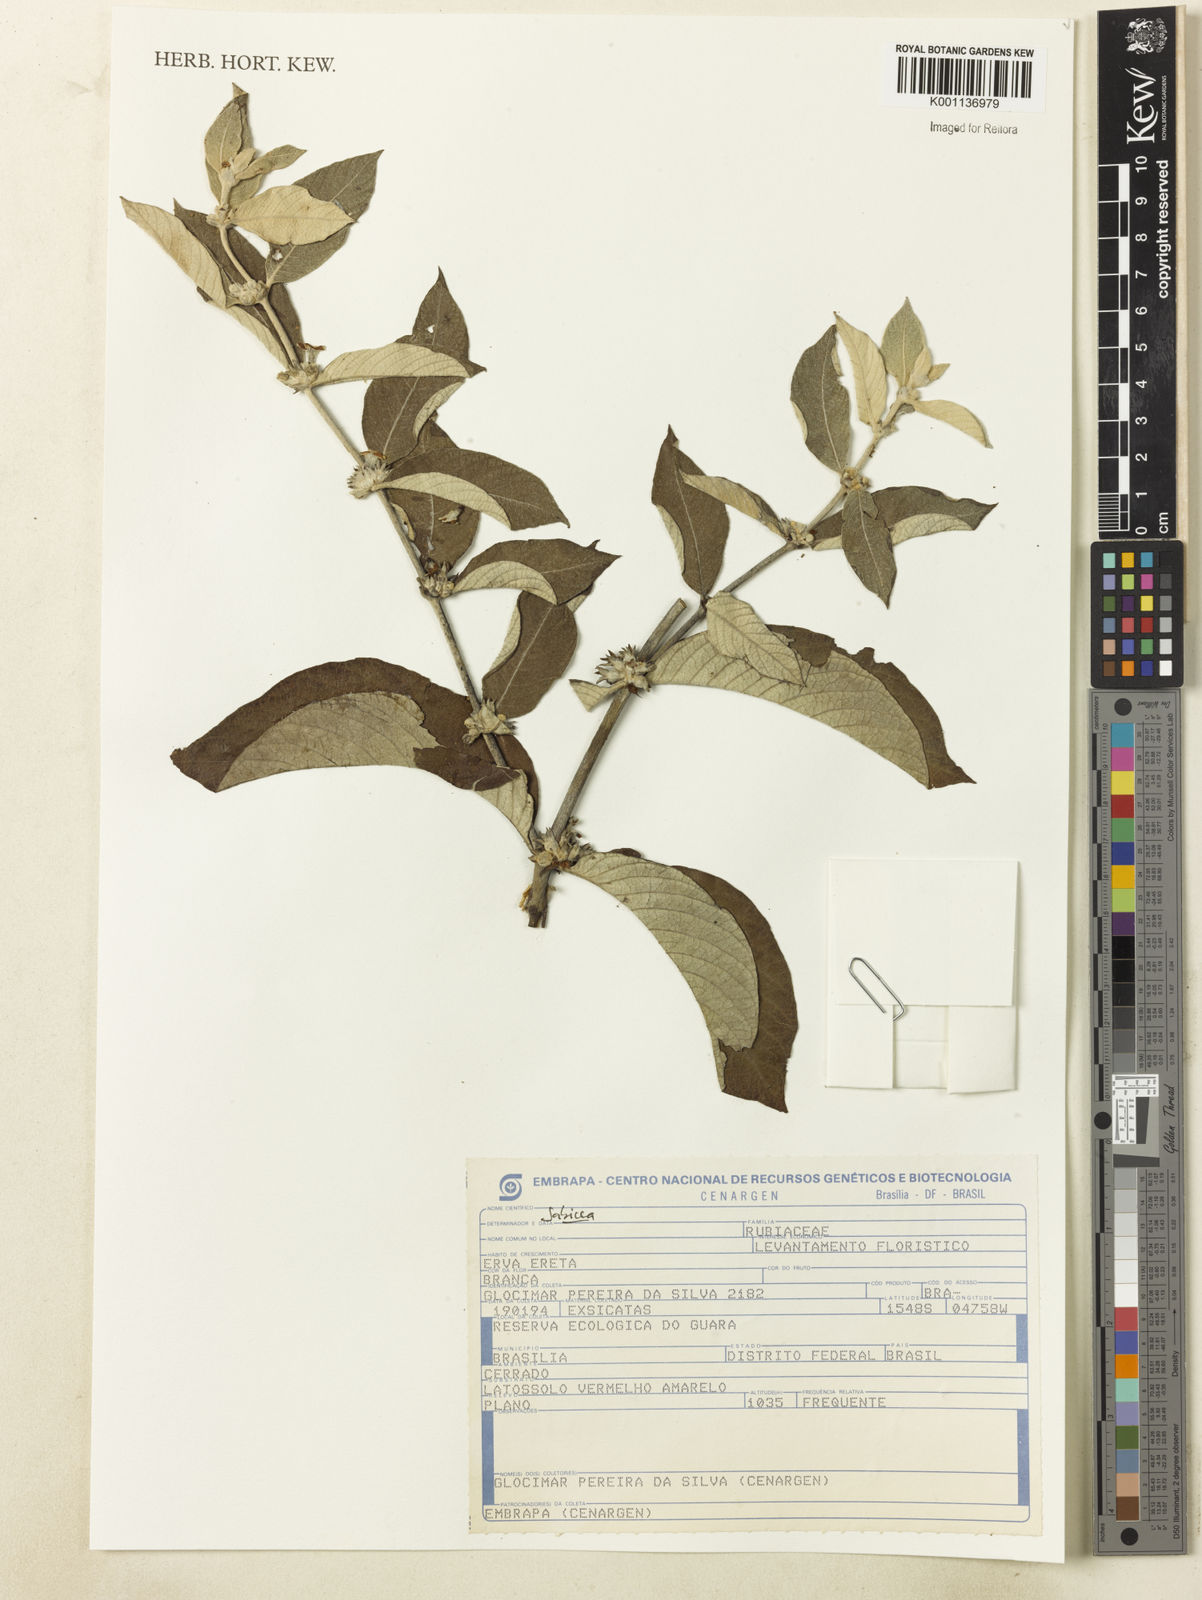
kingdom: Plantae
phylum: Tracheophyta
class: Magnoliopsida
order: Gentianales
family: Rubiaceae
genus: Sabicea
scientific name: Sabicea
